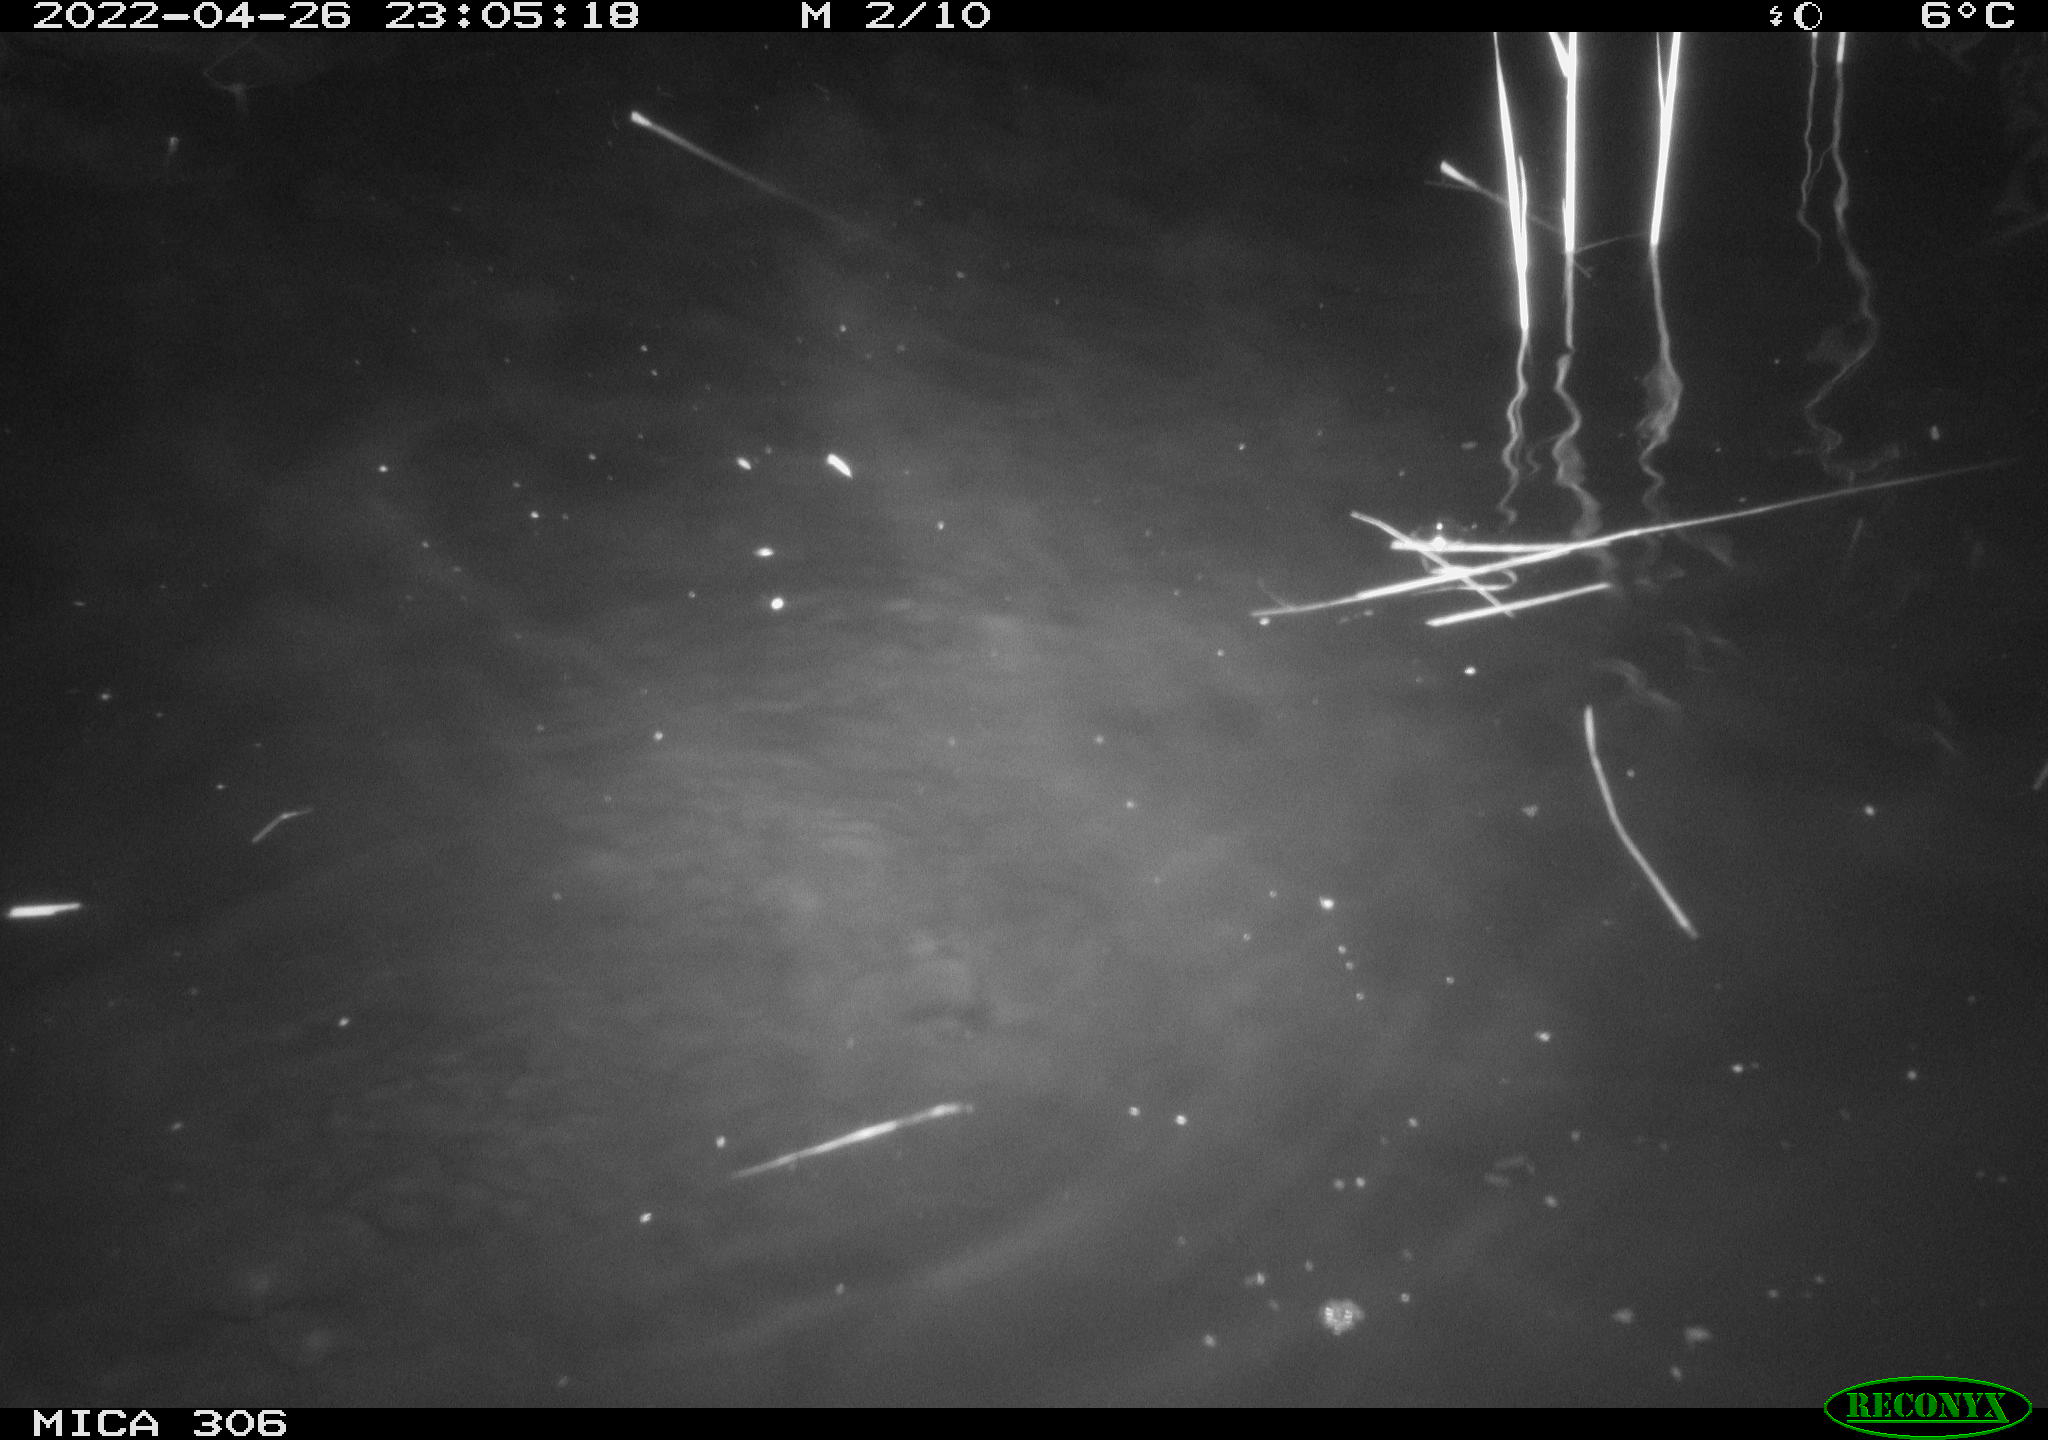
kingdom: Animalia
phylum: Chordata
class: Mammalia
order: Rodentia
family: Cricetidae
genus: Ondatra
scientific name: Ondatra zibethicus
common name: Muskrat
